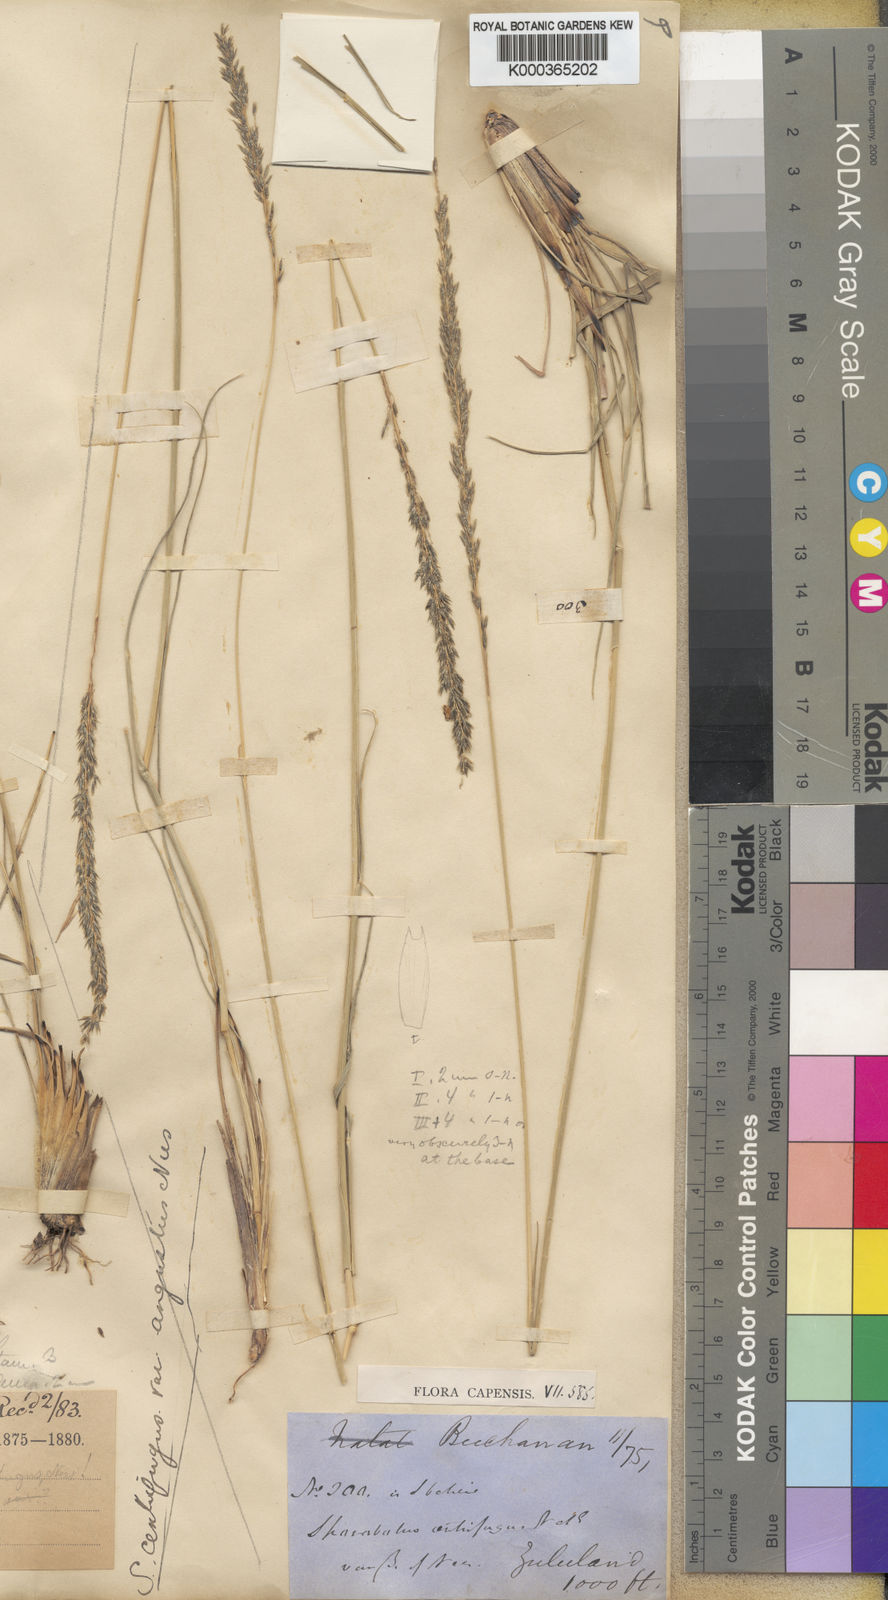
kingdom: Plantae
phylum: Tracheophyta
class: Liliopsida
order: Poales
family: Poaceae
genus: Sporobolus
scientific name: Sporobolus rigidifolius
